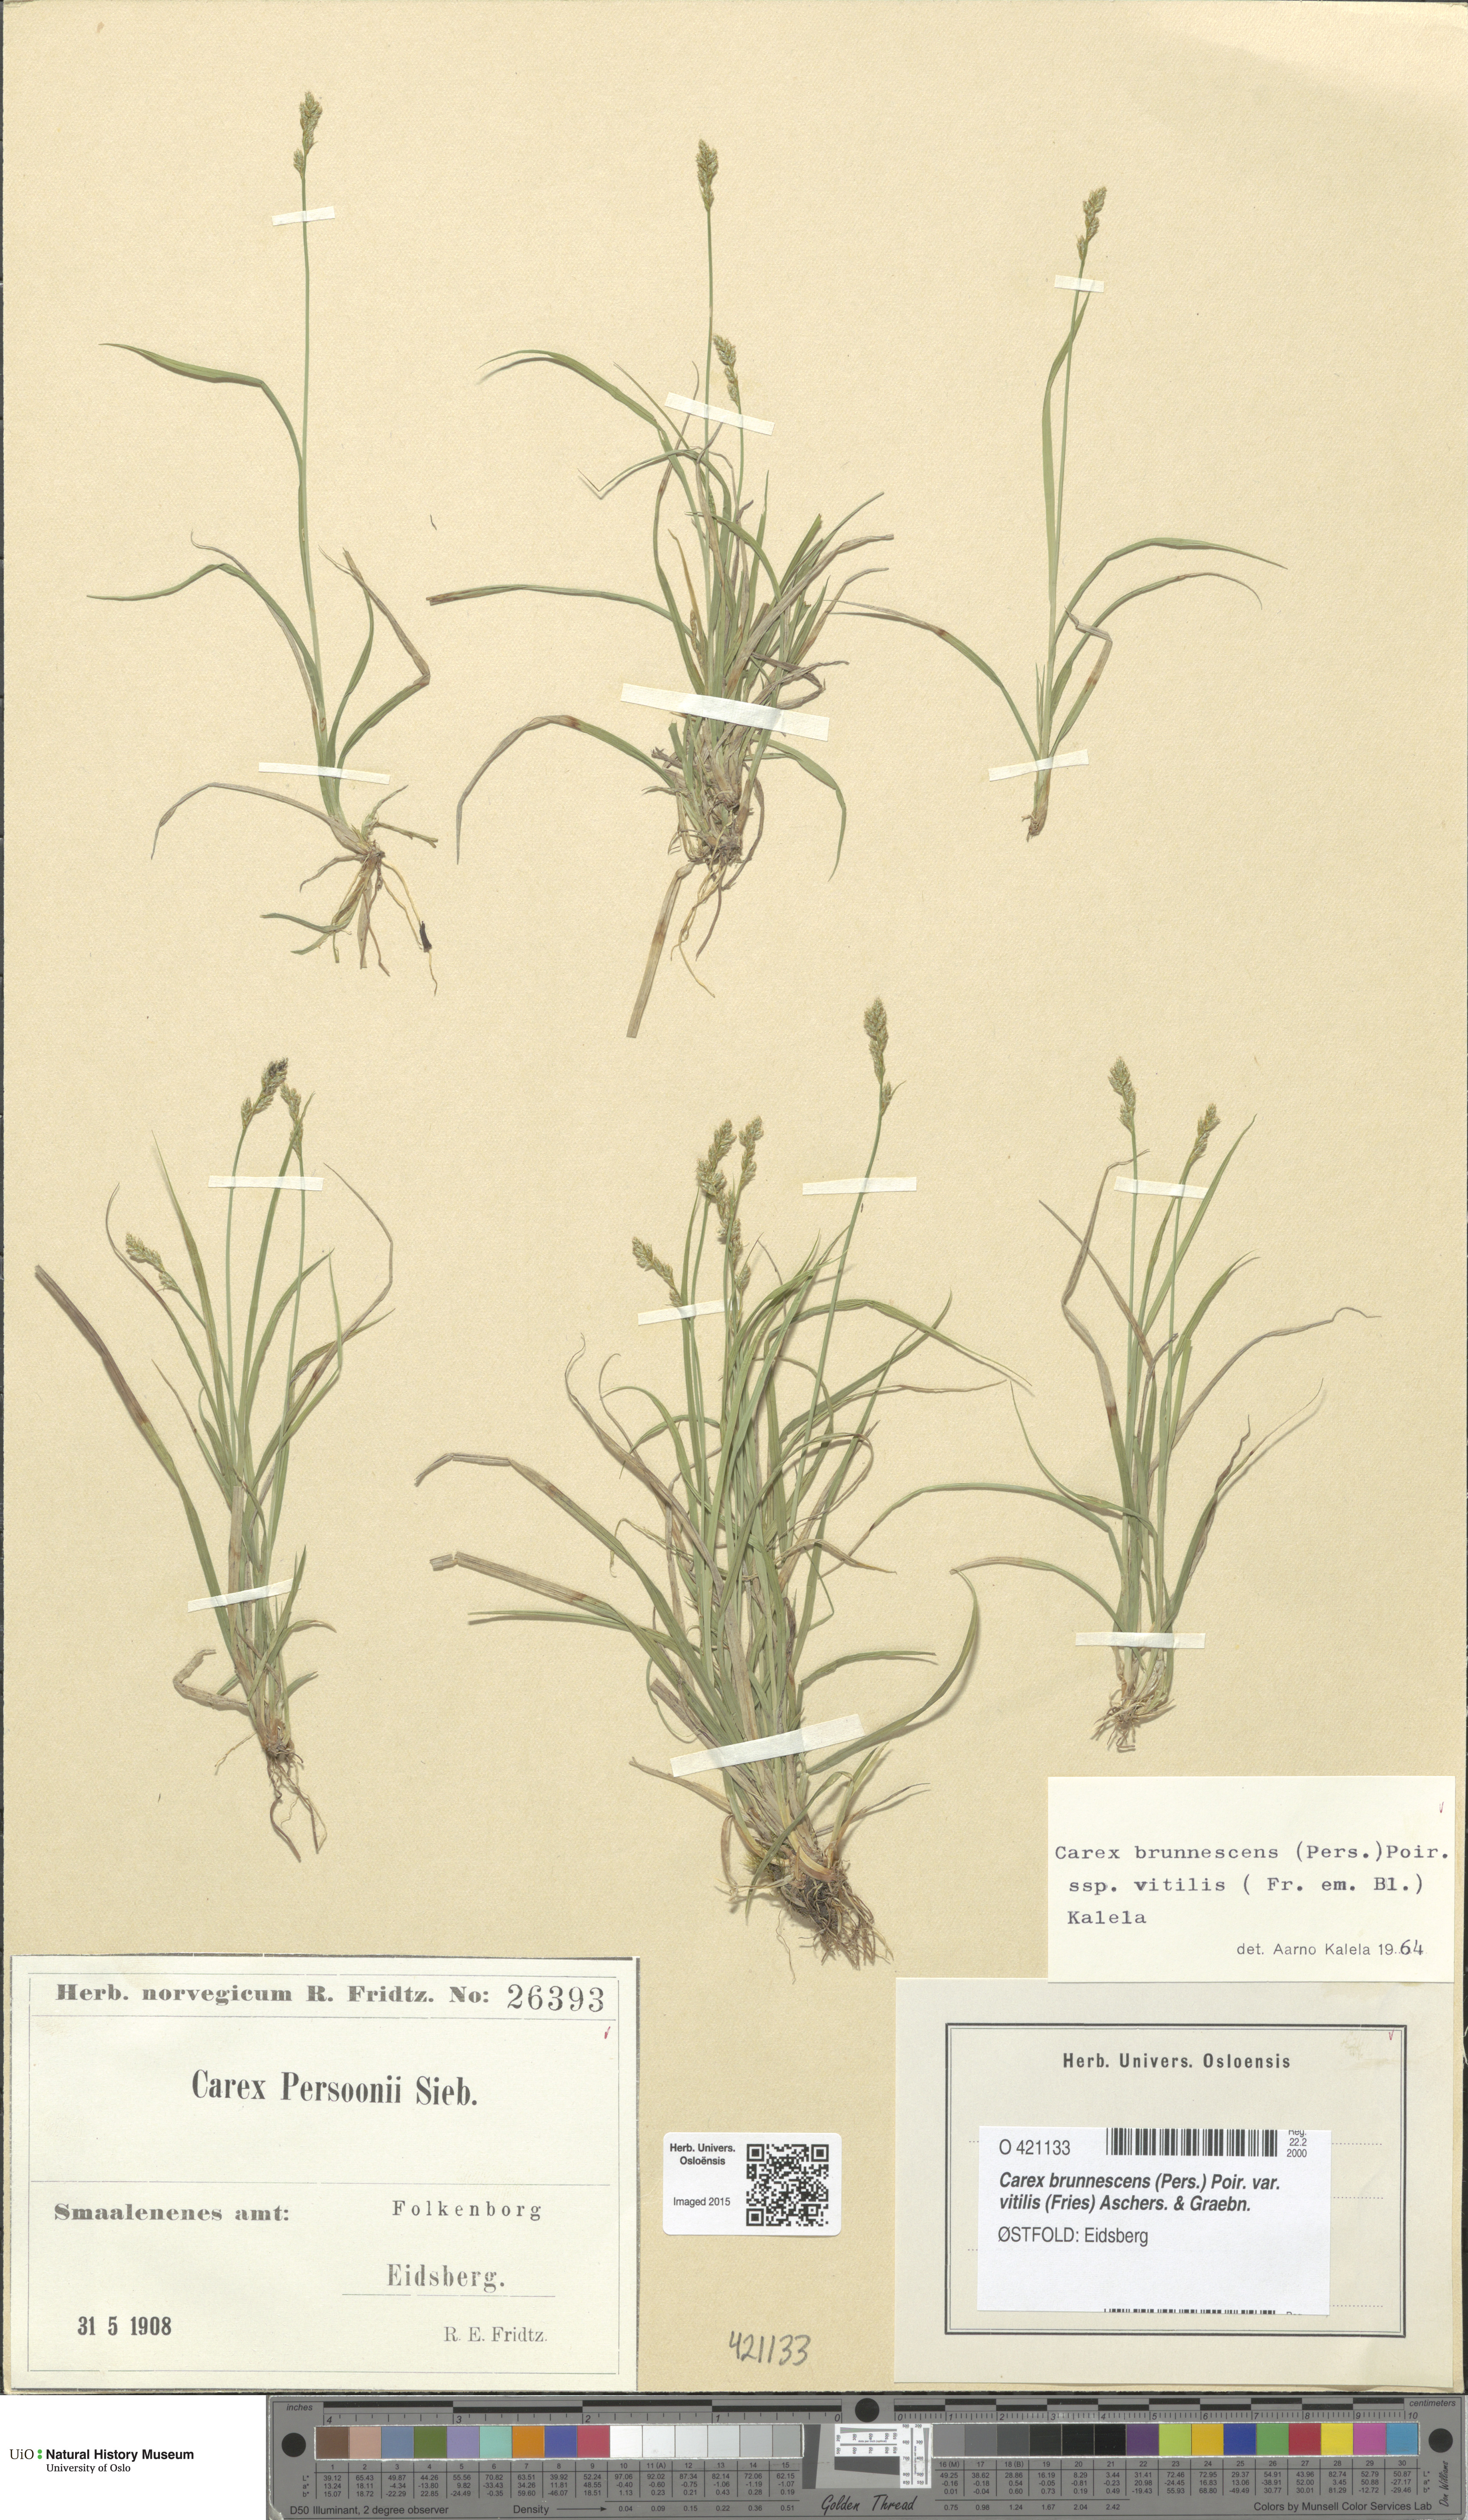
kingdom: Plantae
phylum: Tracheophyta
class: Liliopsida
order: Poales
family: Cyperaceae
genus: Carex
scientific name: Carex brunnescens
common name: Brown sedge
